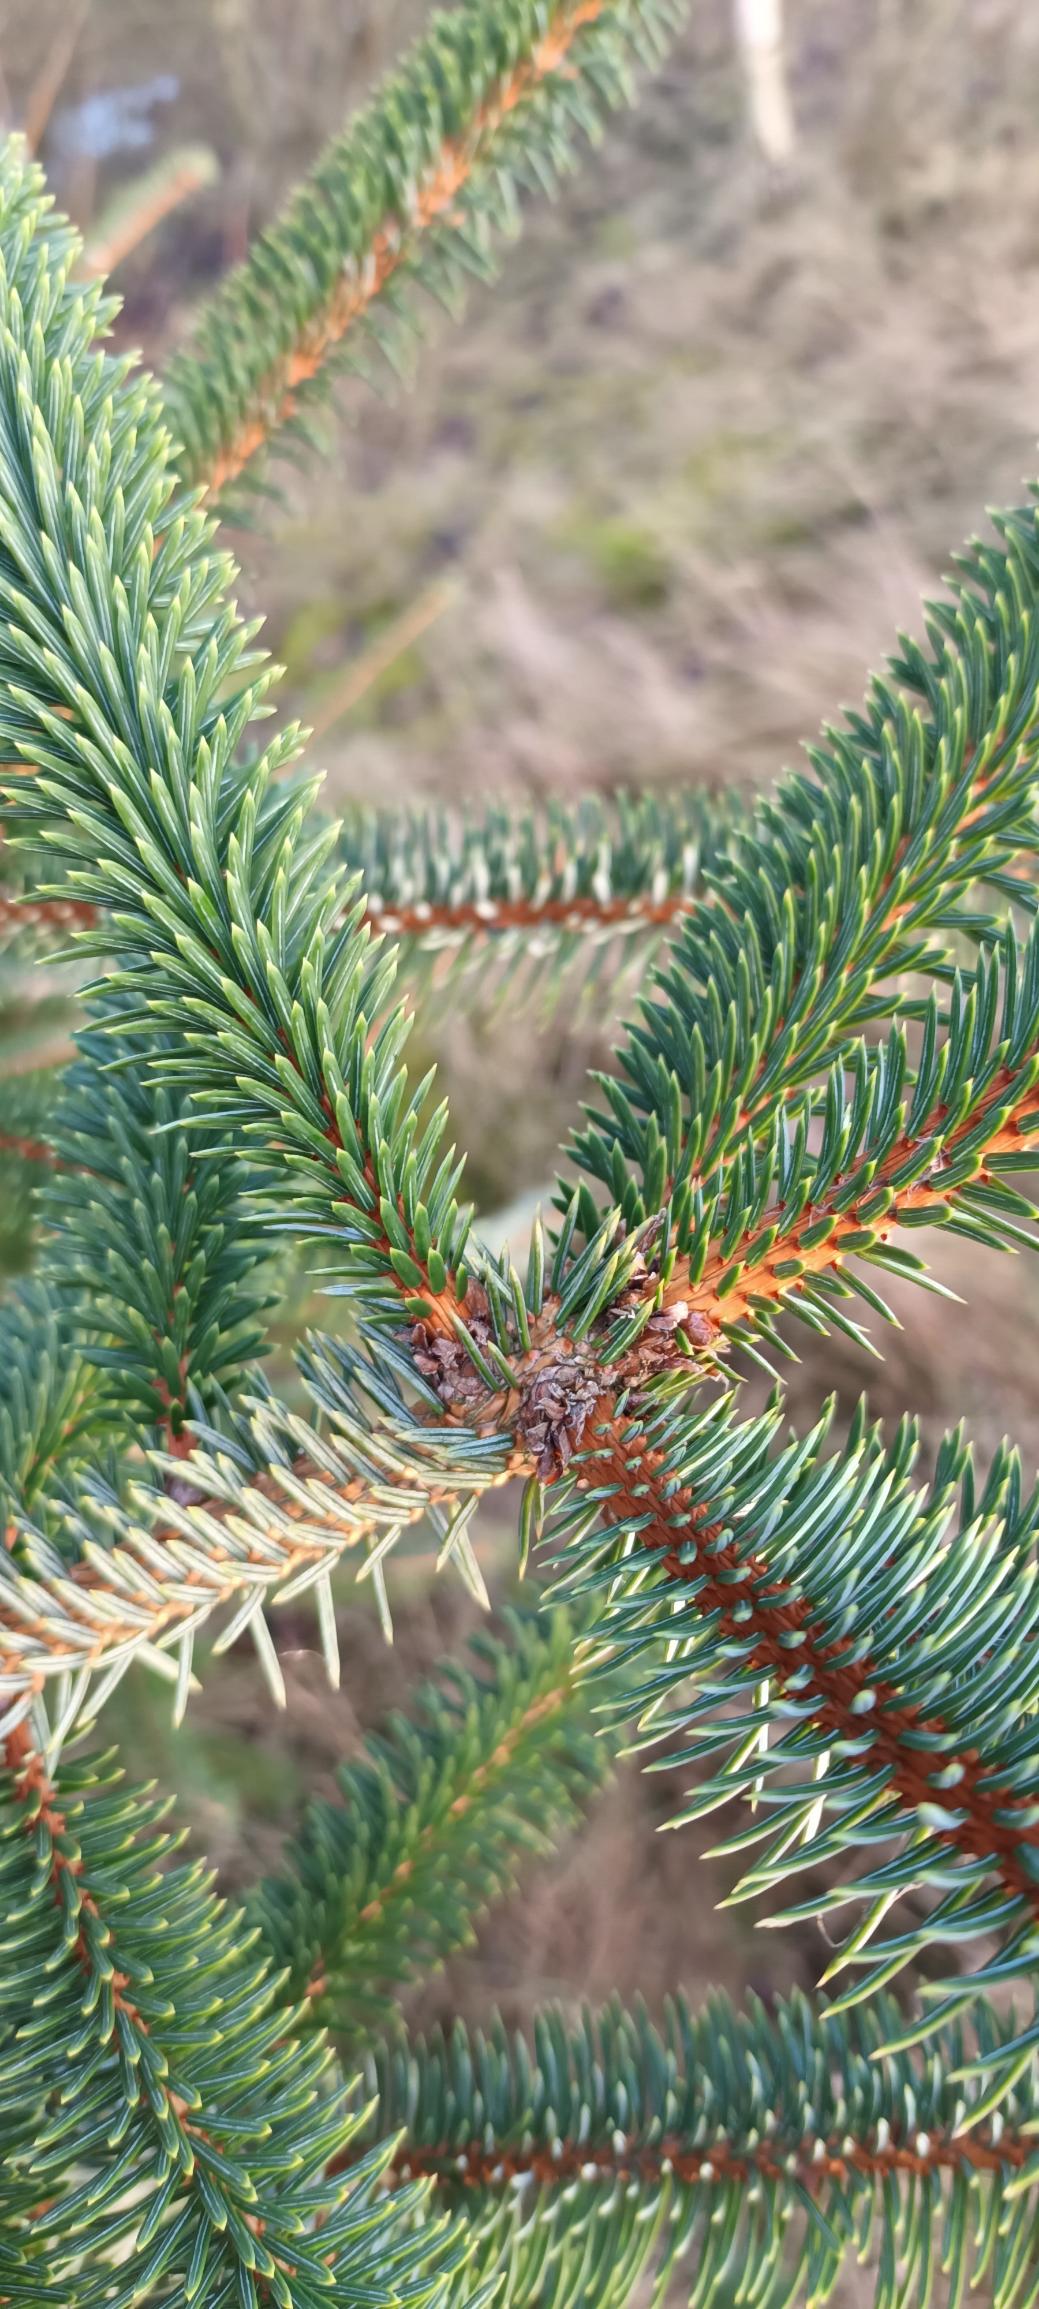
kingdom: Plantae
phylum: Tracheophyta
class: Pinopsida
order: Pinales
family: Pinaceae
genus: Picea
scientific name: Picea sitchensis
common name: Sitka-gran
